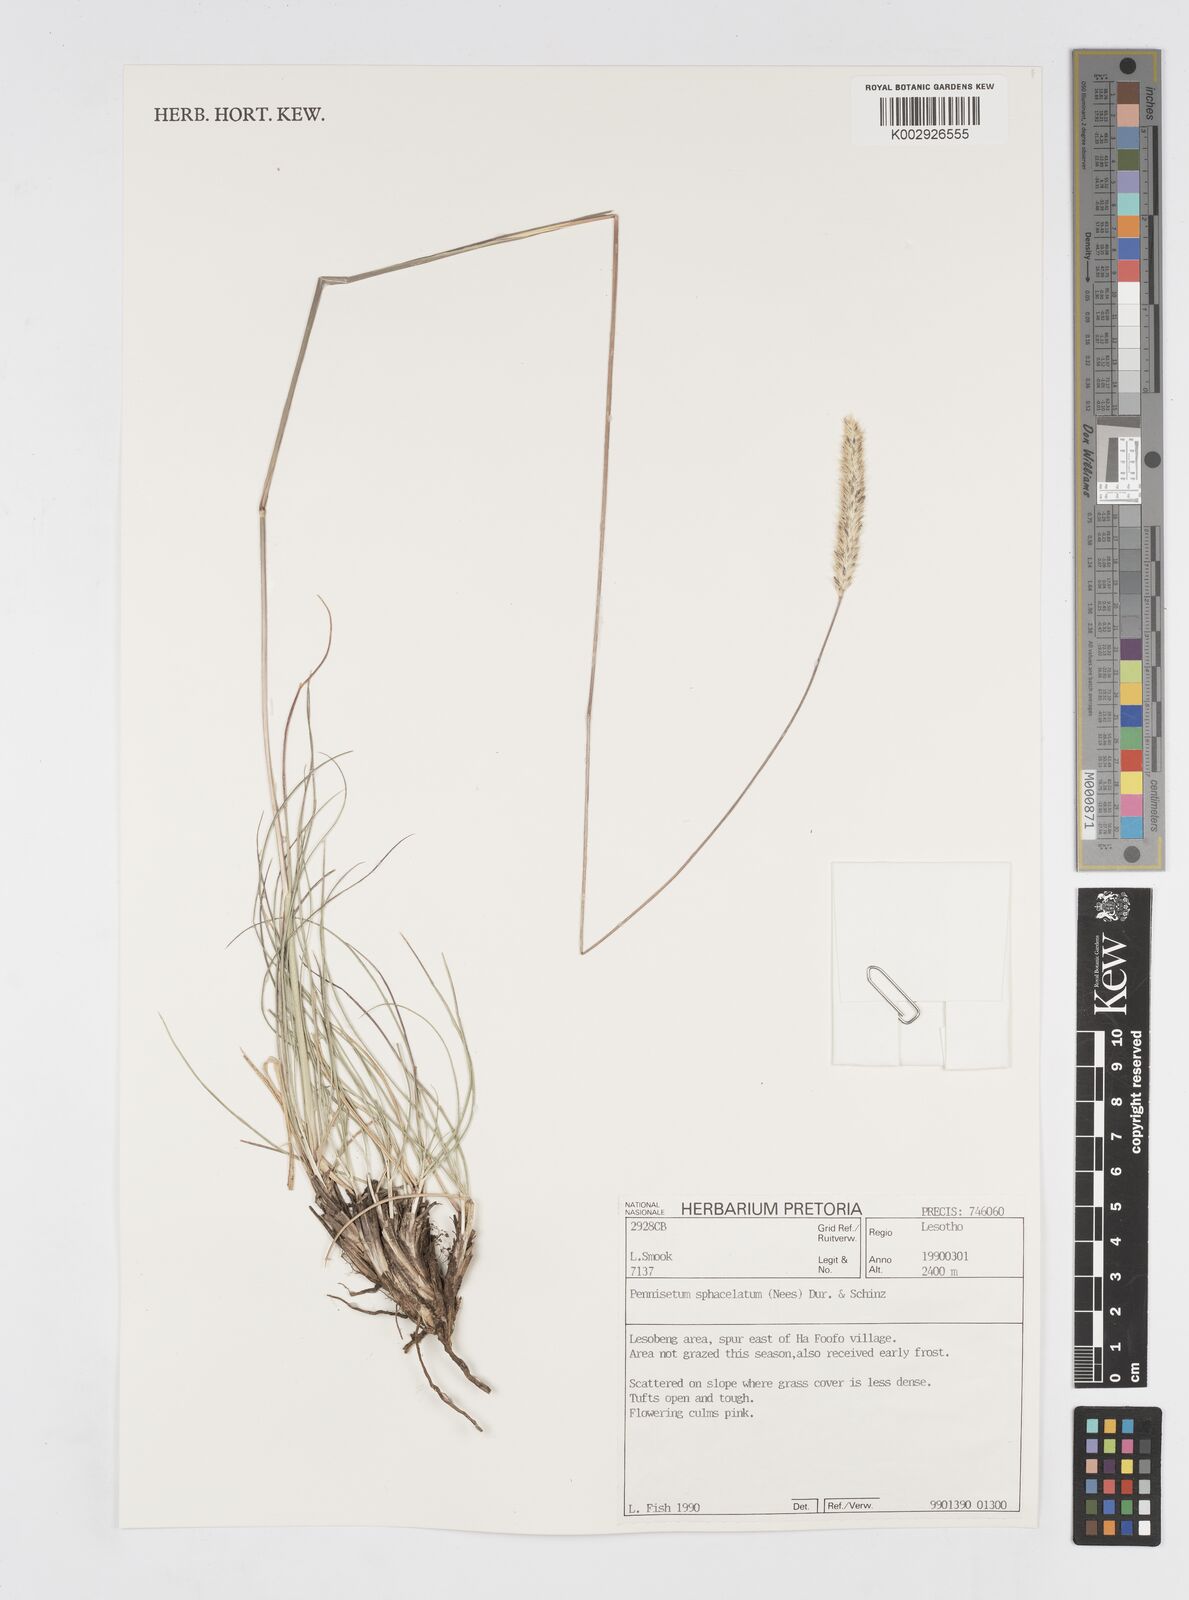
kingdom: Plantae
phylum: Tracheophyta
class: Liliopsida
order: Poales
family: Poaceae
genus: Cenchrus
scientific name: Cenchrus sphacelatus
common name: Bulgras
